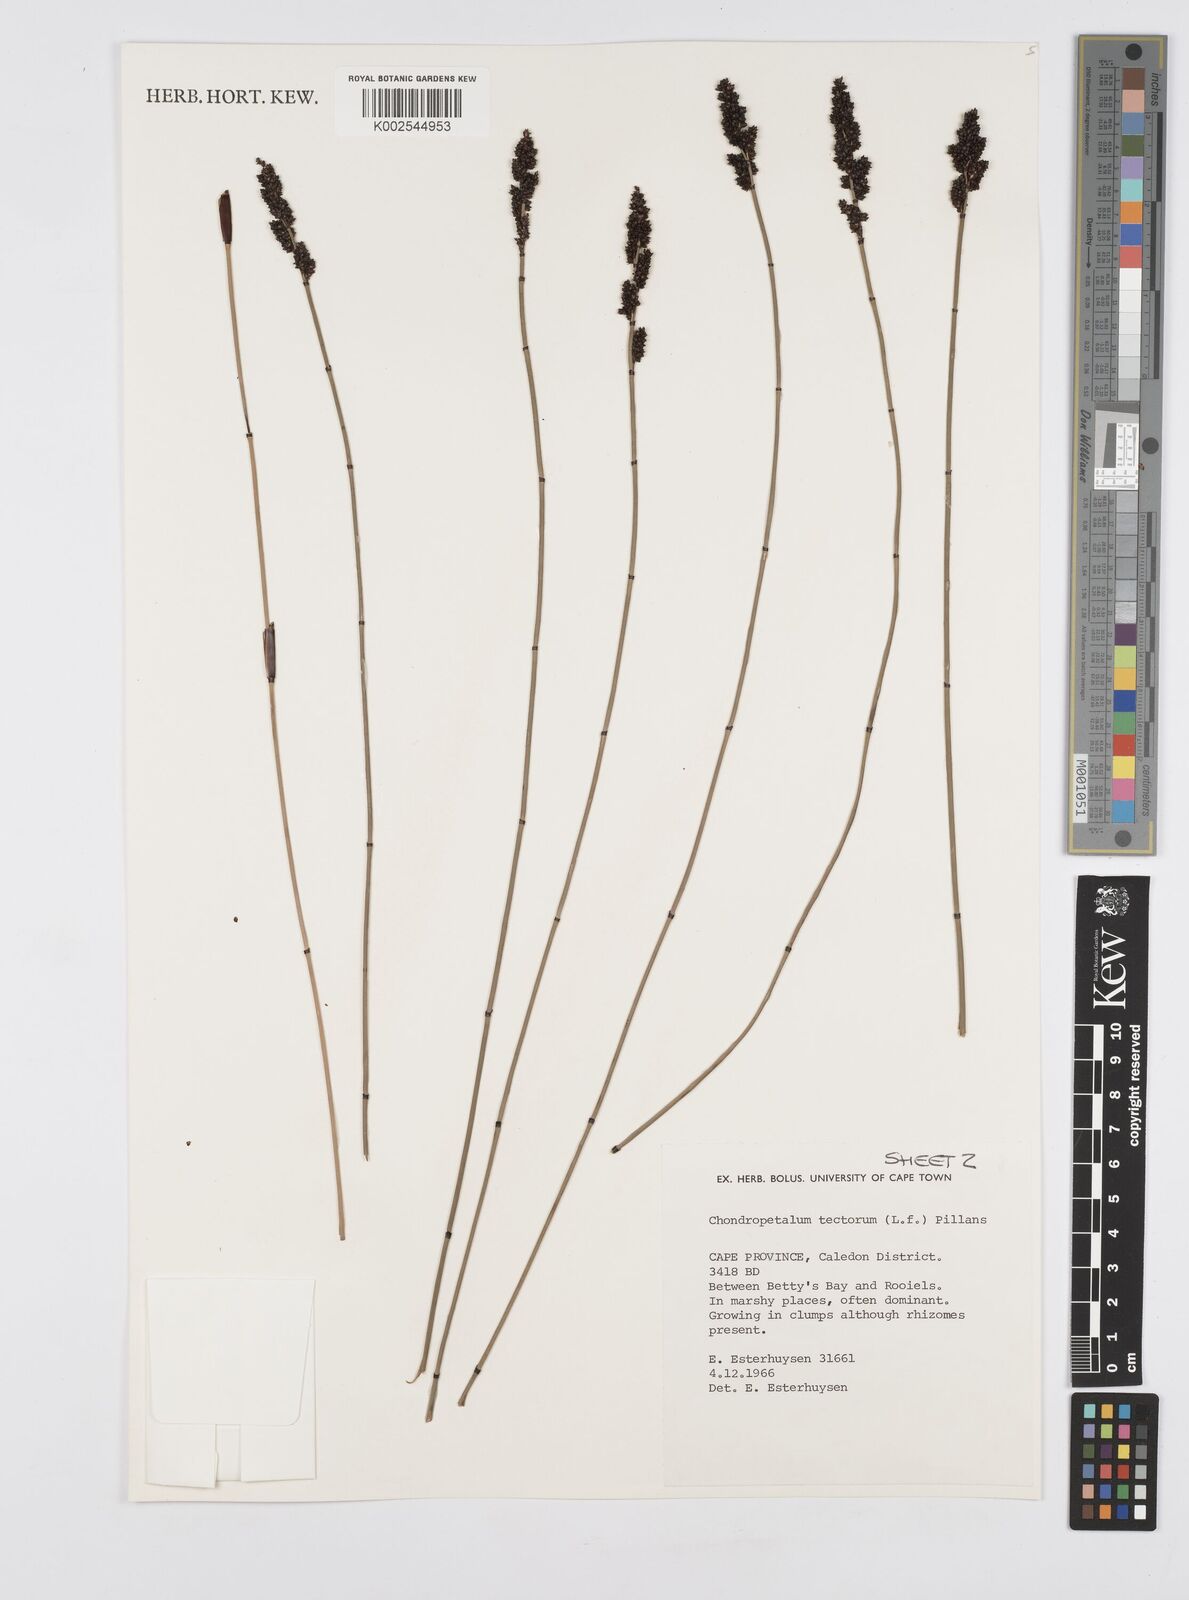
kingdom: Plantae
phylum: Tracheophyta
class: Liliopsida
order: Poales
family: Restionaceae
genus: Elegia
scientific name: Elegia tectorum
